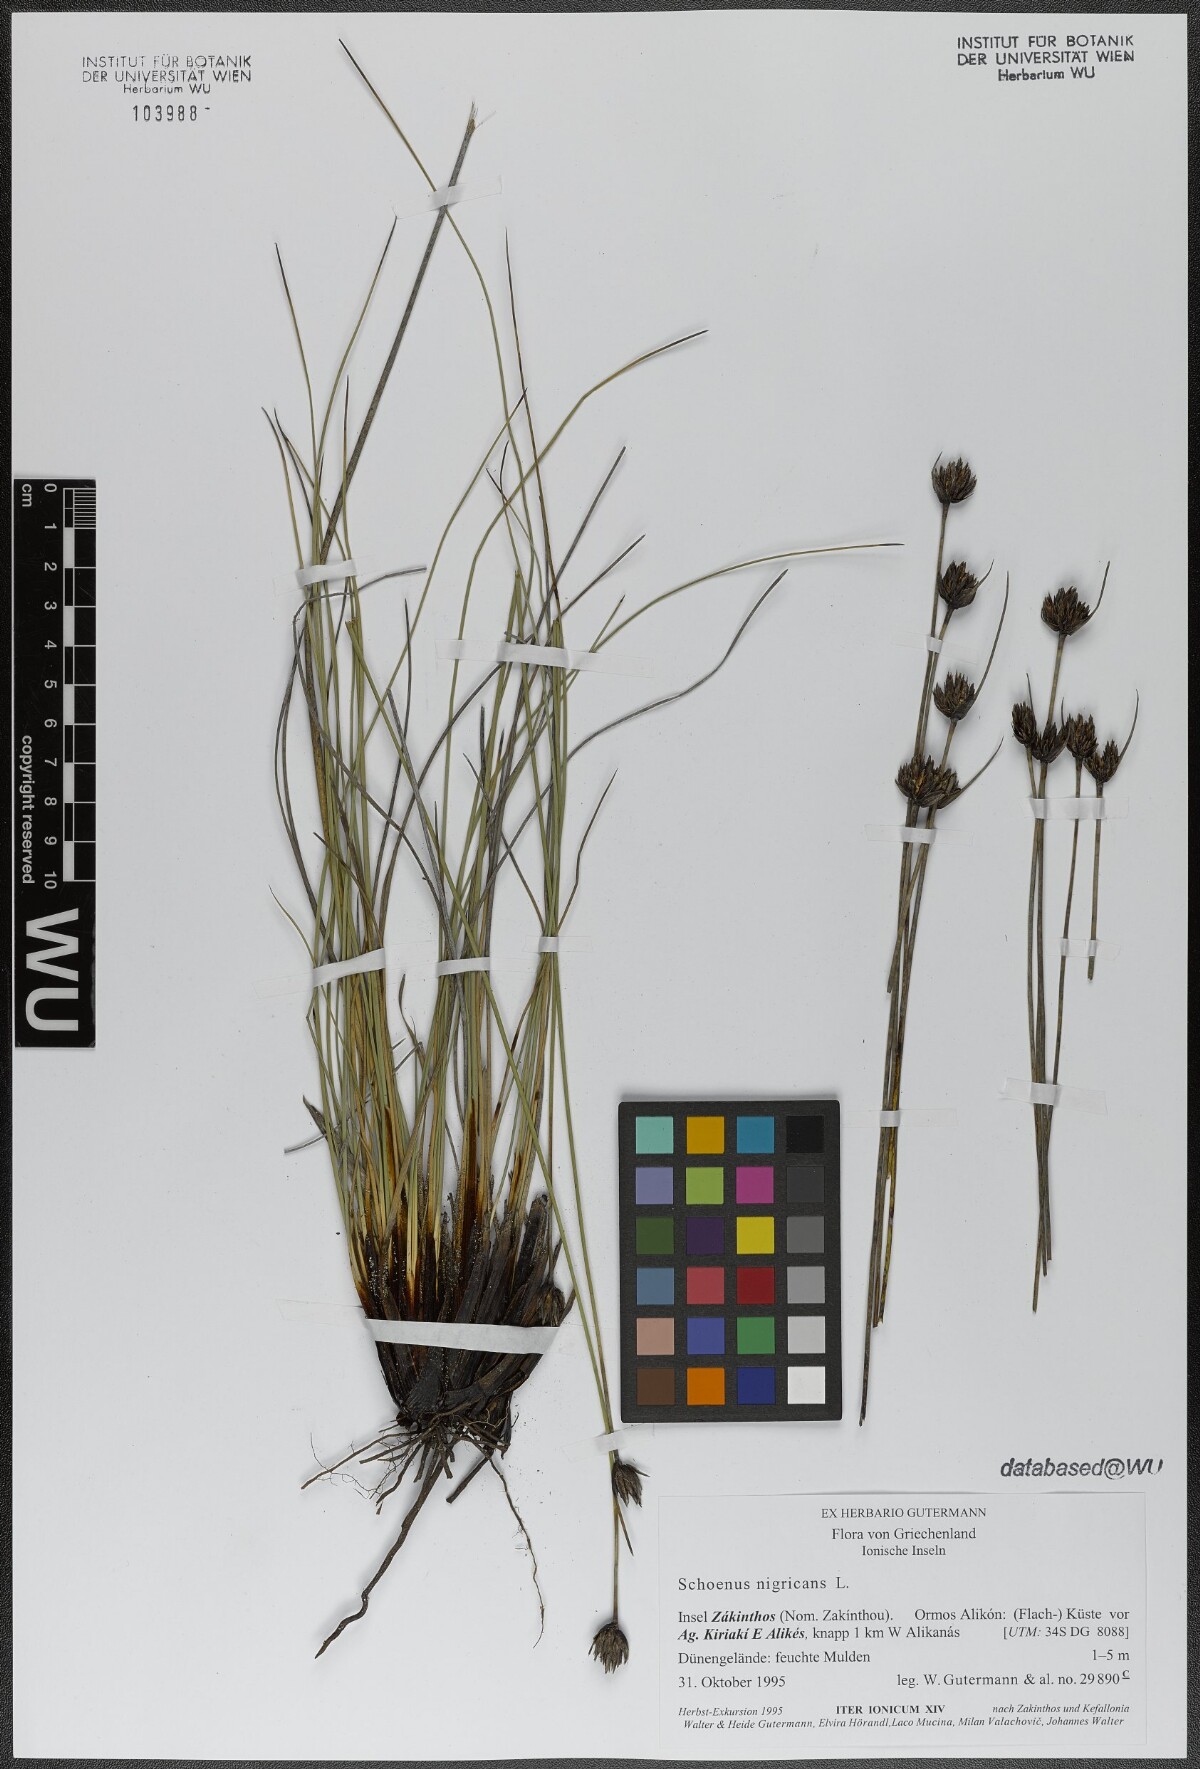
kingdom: Plantae
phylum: Tracheophyta
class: Liliopsida
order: Poales
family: Cyperaceae
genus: Schoenus
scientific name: Schoenus nigricans
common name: Black bog-rush
